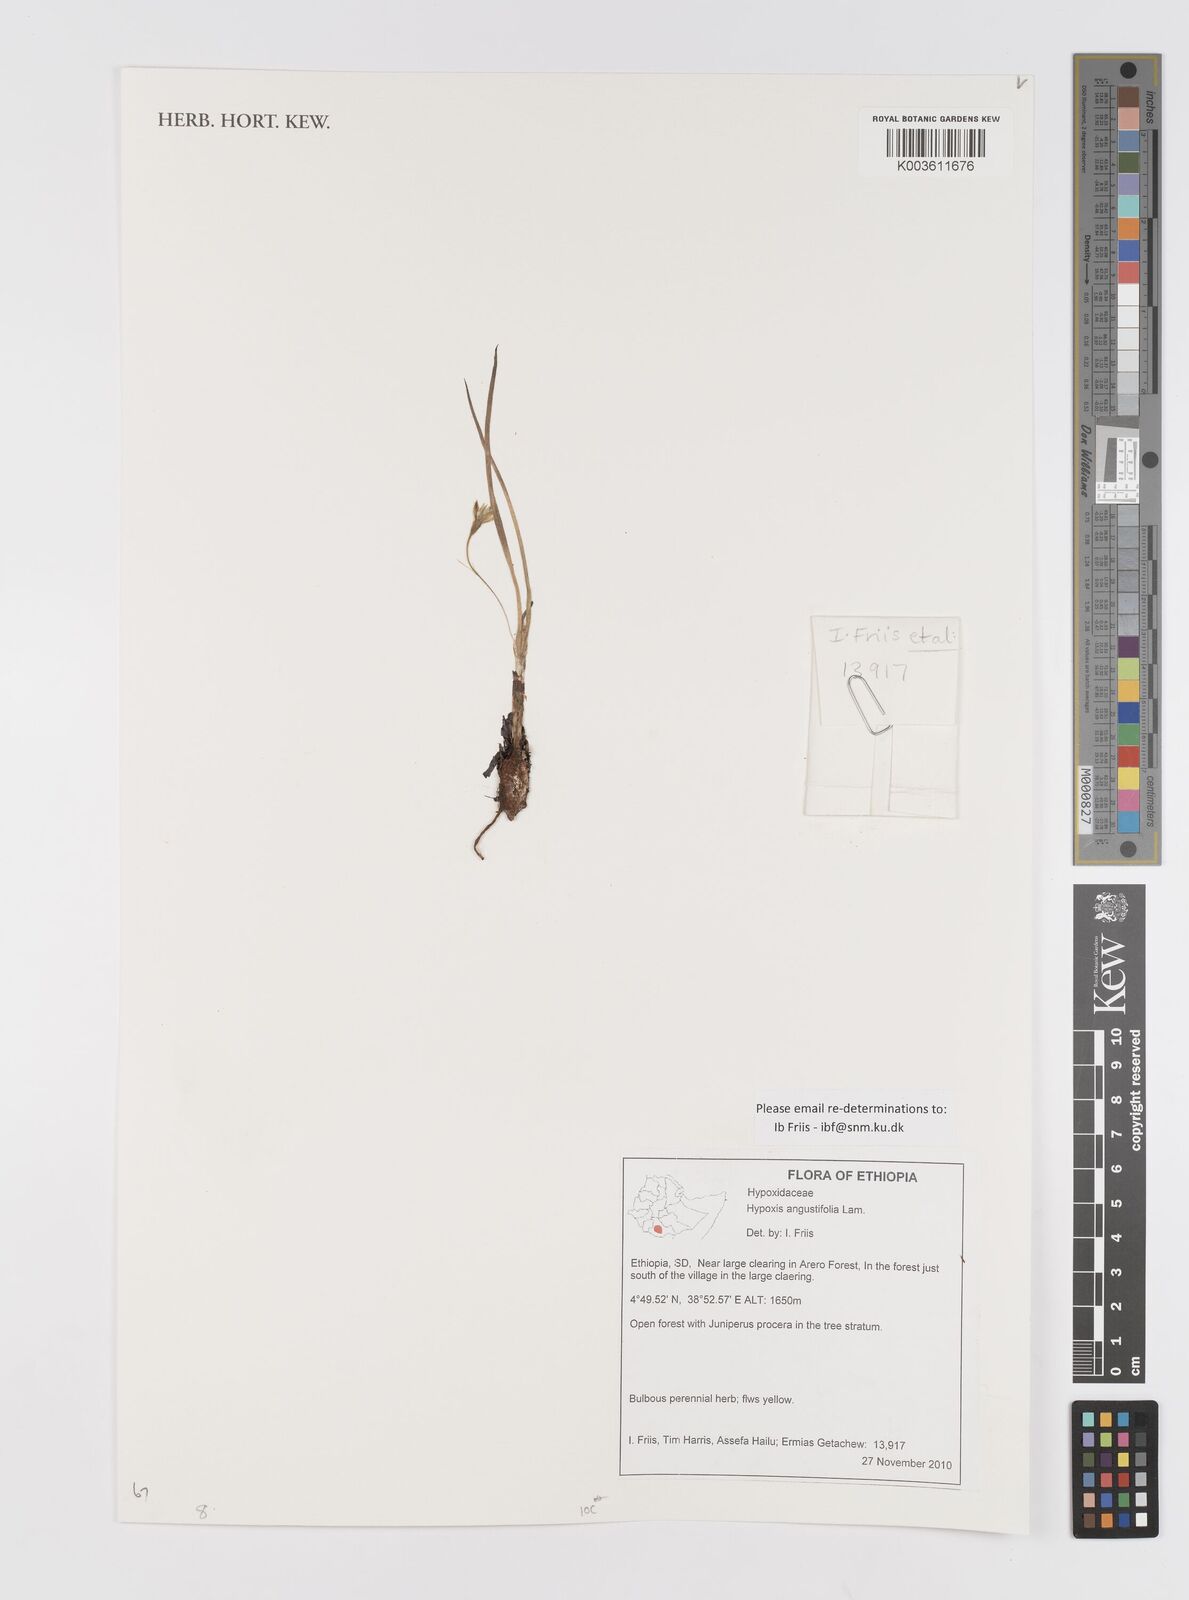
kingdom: Plantae
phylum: Tracheophyta
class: Liliopsida
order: Asparagales
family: Hypoxidaceae
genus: Hypoxis
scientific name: Hypoxis angustifolia
